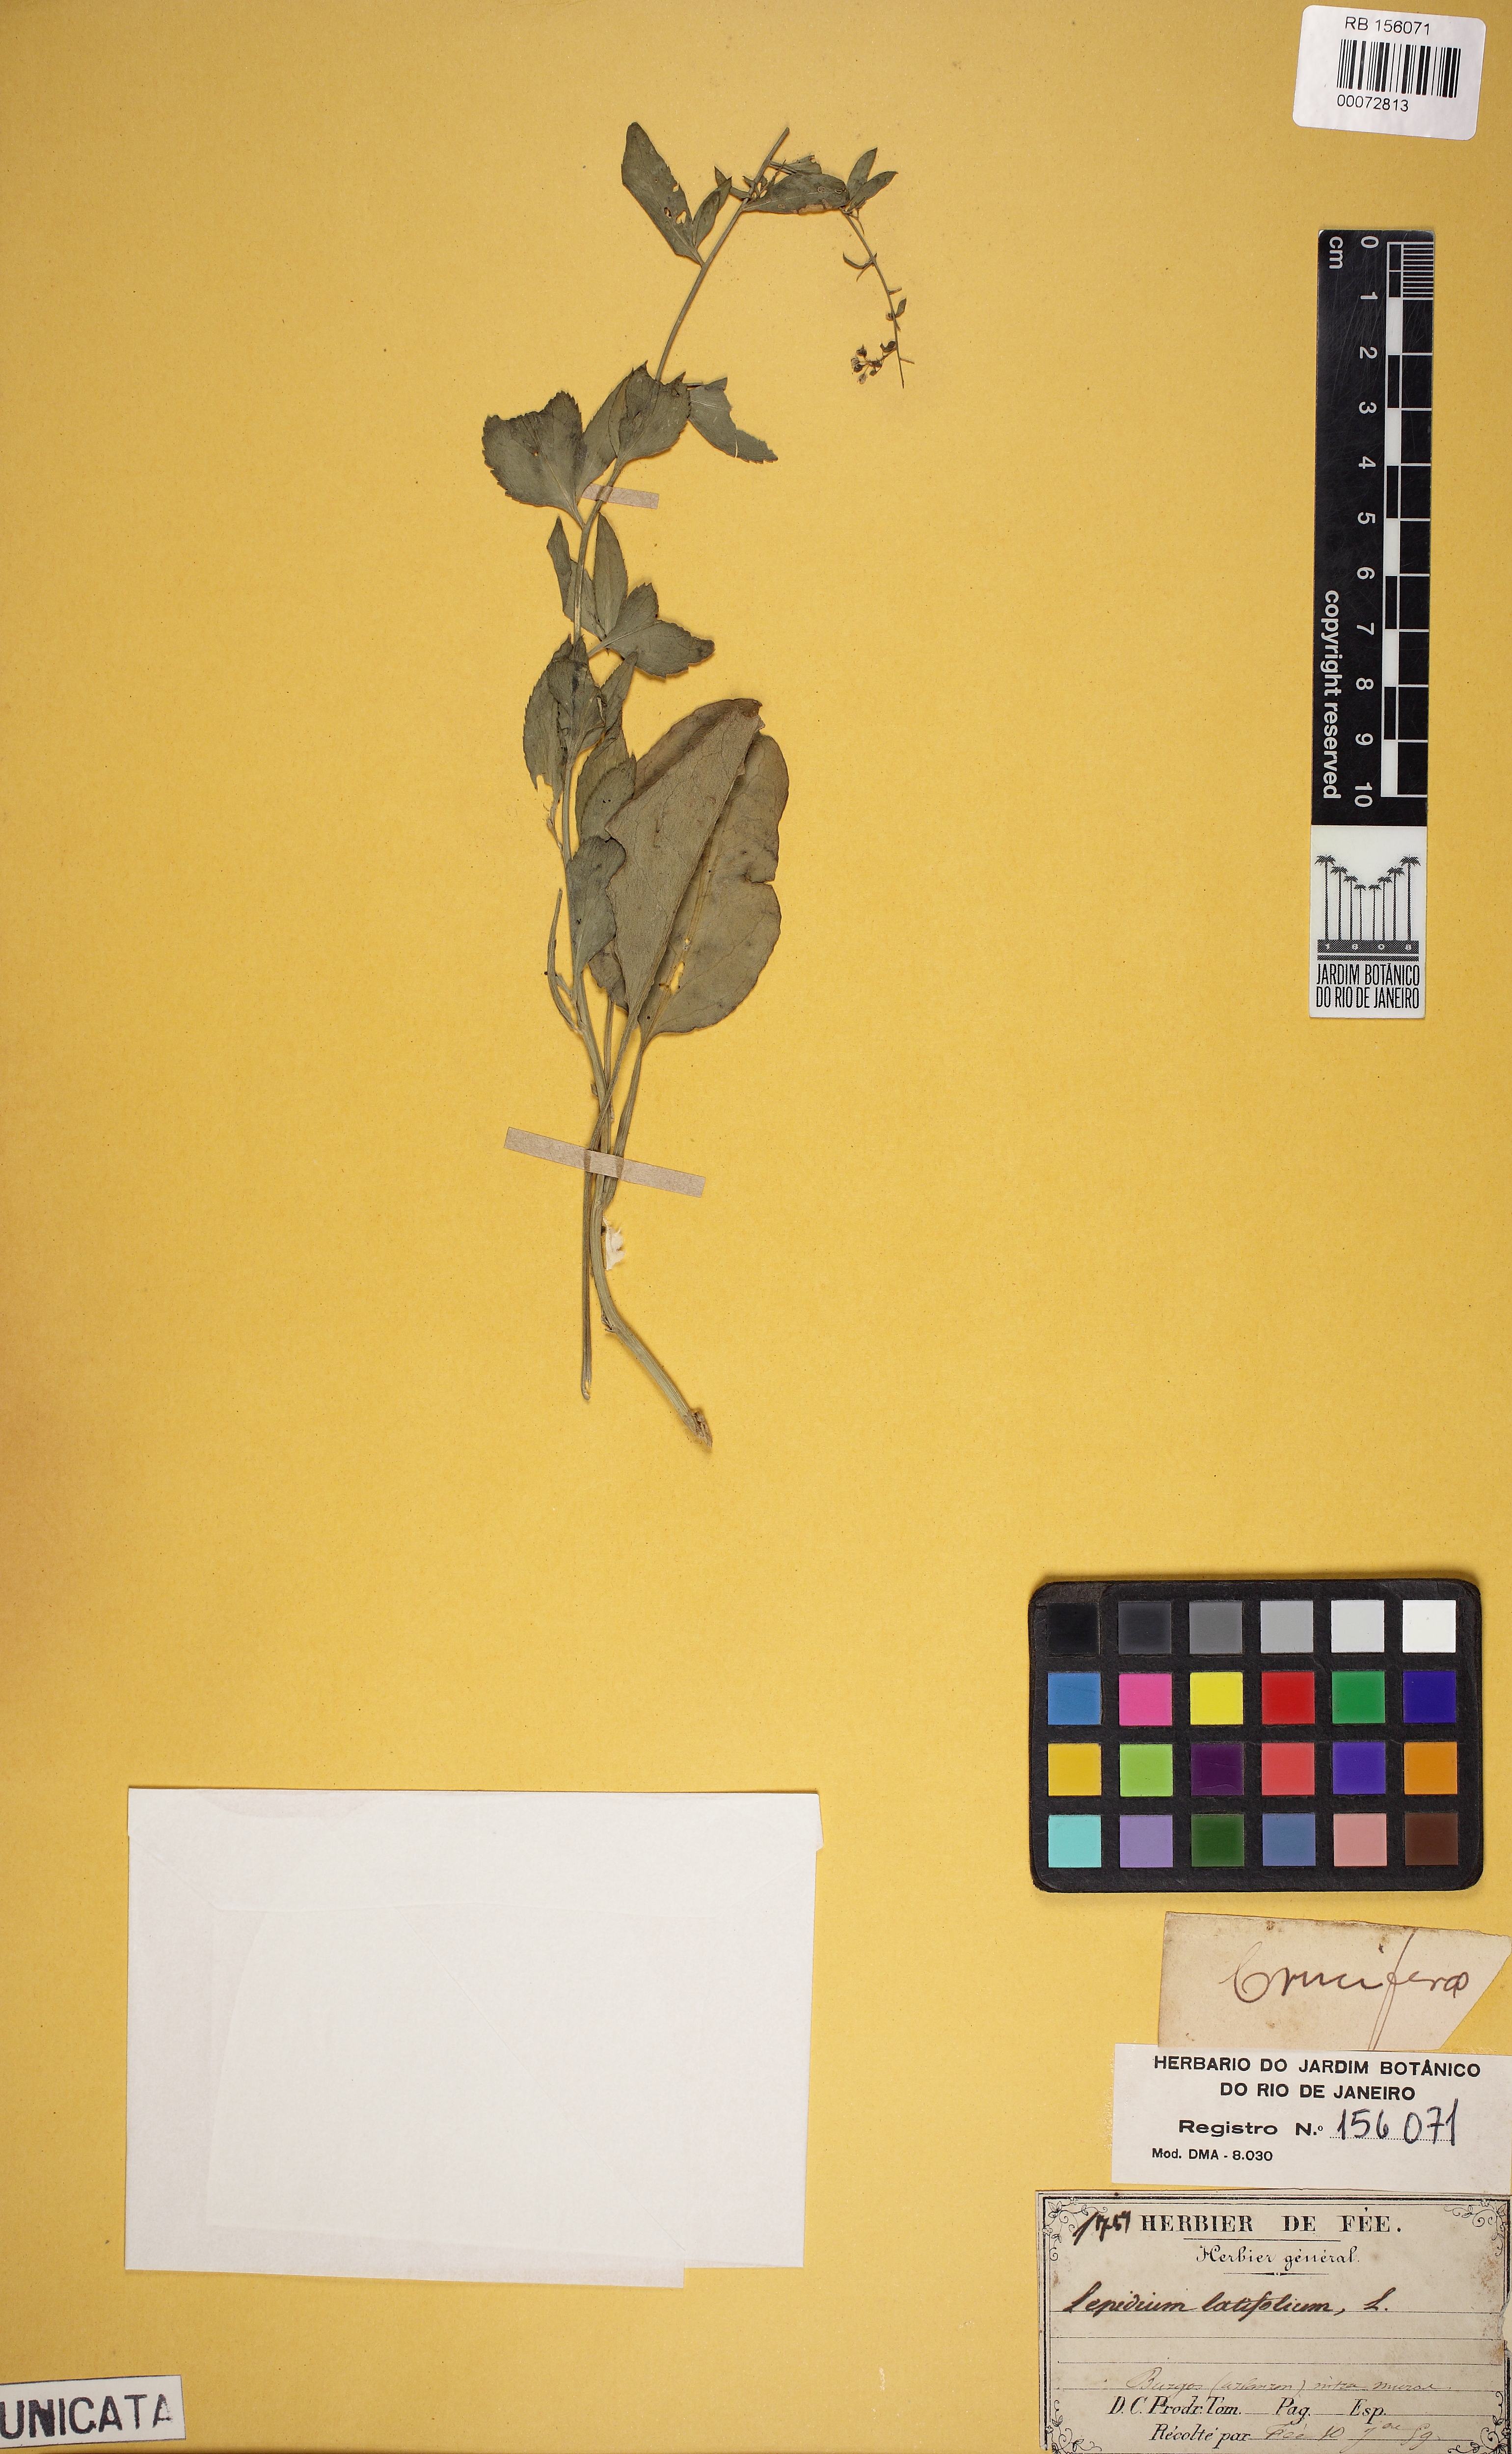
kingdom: Plantae
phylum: Tracheophyta
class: Magnoliopsida
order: Brassicales
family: Brassicaceae
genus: Lepidium
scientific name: Lepidium latifolium
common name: Dittander
